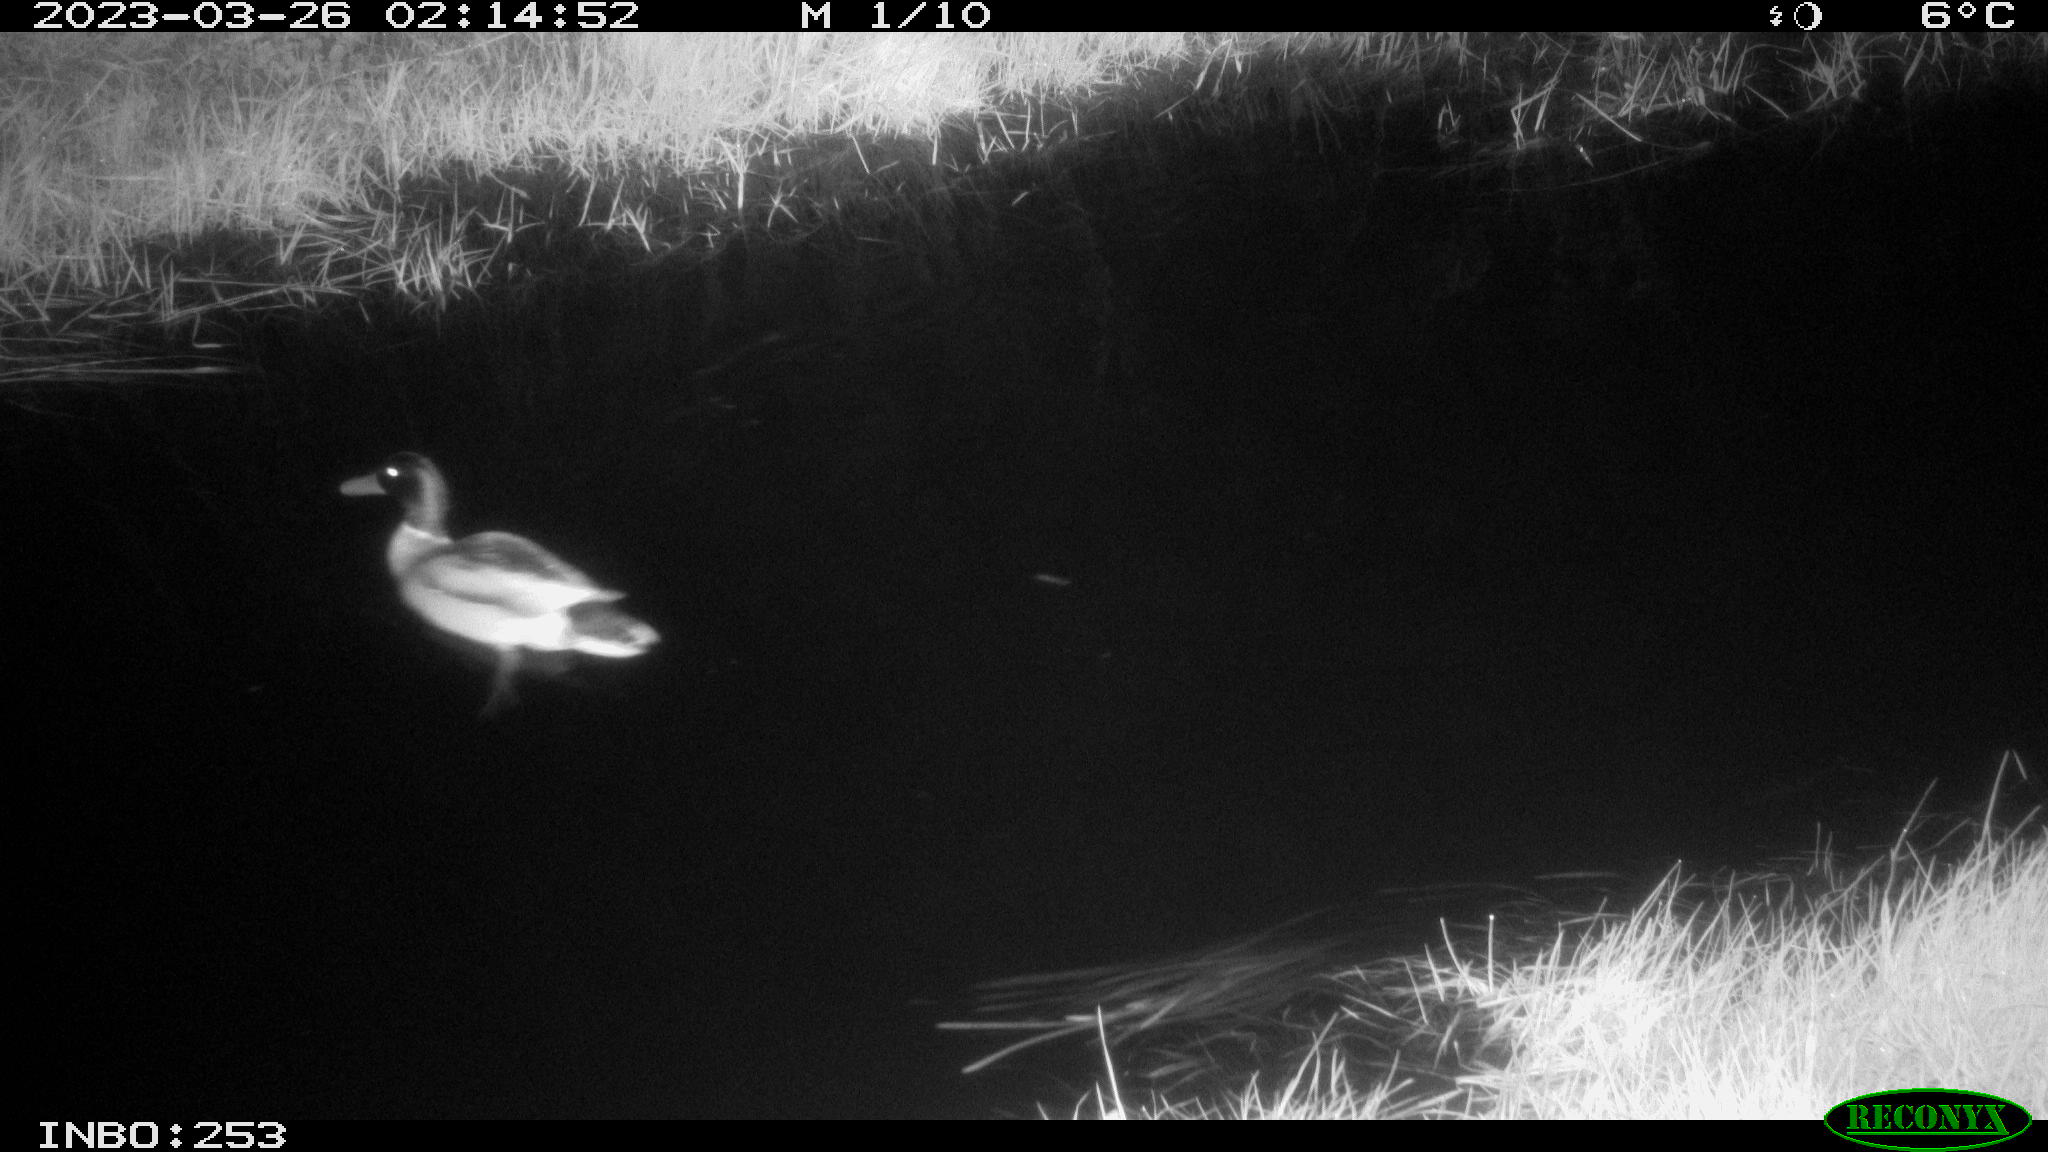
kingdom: Animalia
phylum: Chordata
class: Aves
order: Anseriformes
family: Anatidae
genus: Anas
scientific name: Anas
